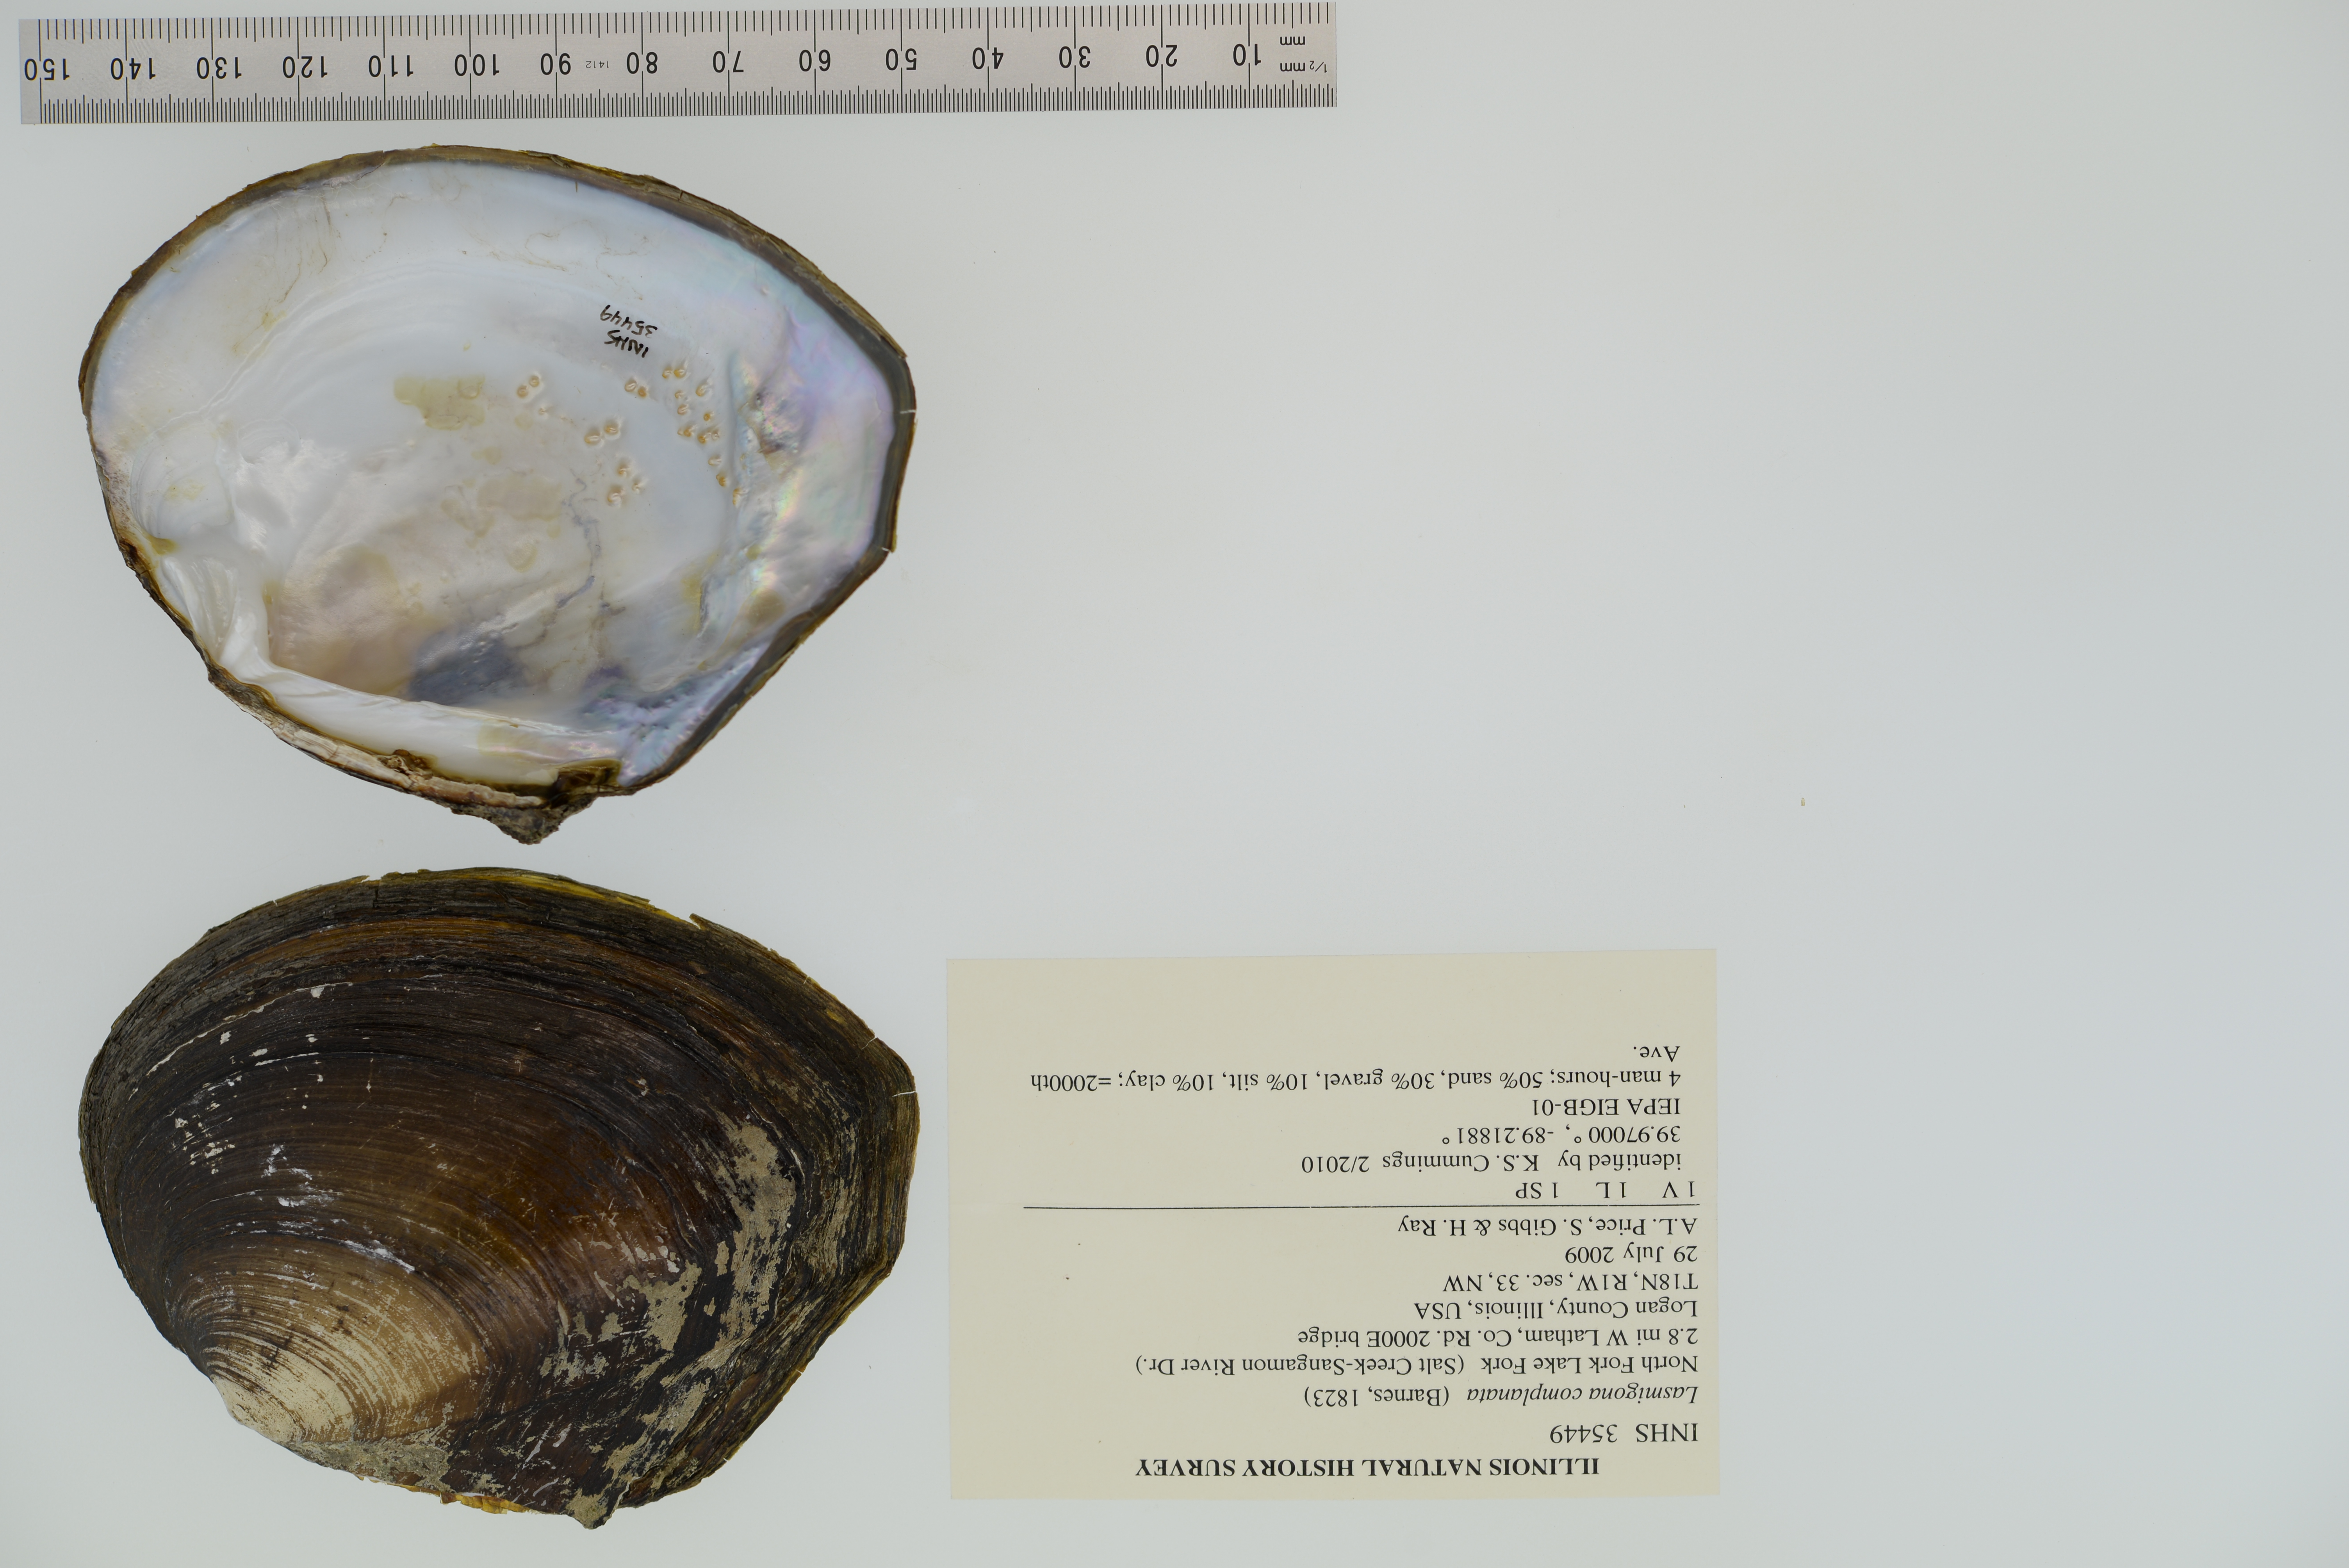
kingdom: Animalia
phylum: Mollusca
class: Bivalvia
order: Unionida
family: Unionidae
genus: Lasmigona
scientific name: Lasmigona complanata
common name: White heelsplitter
